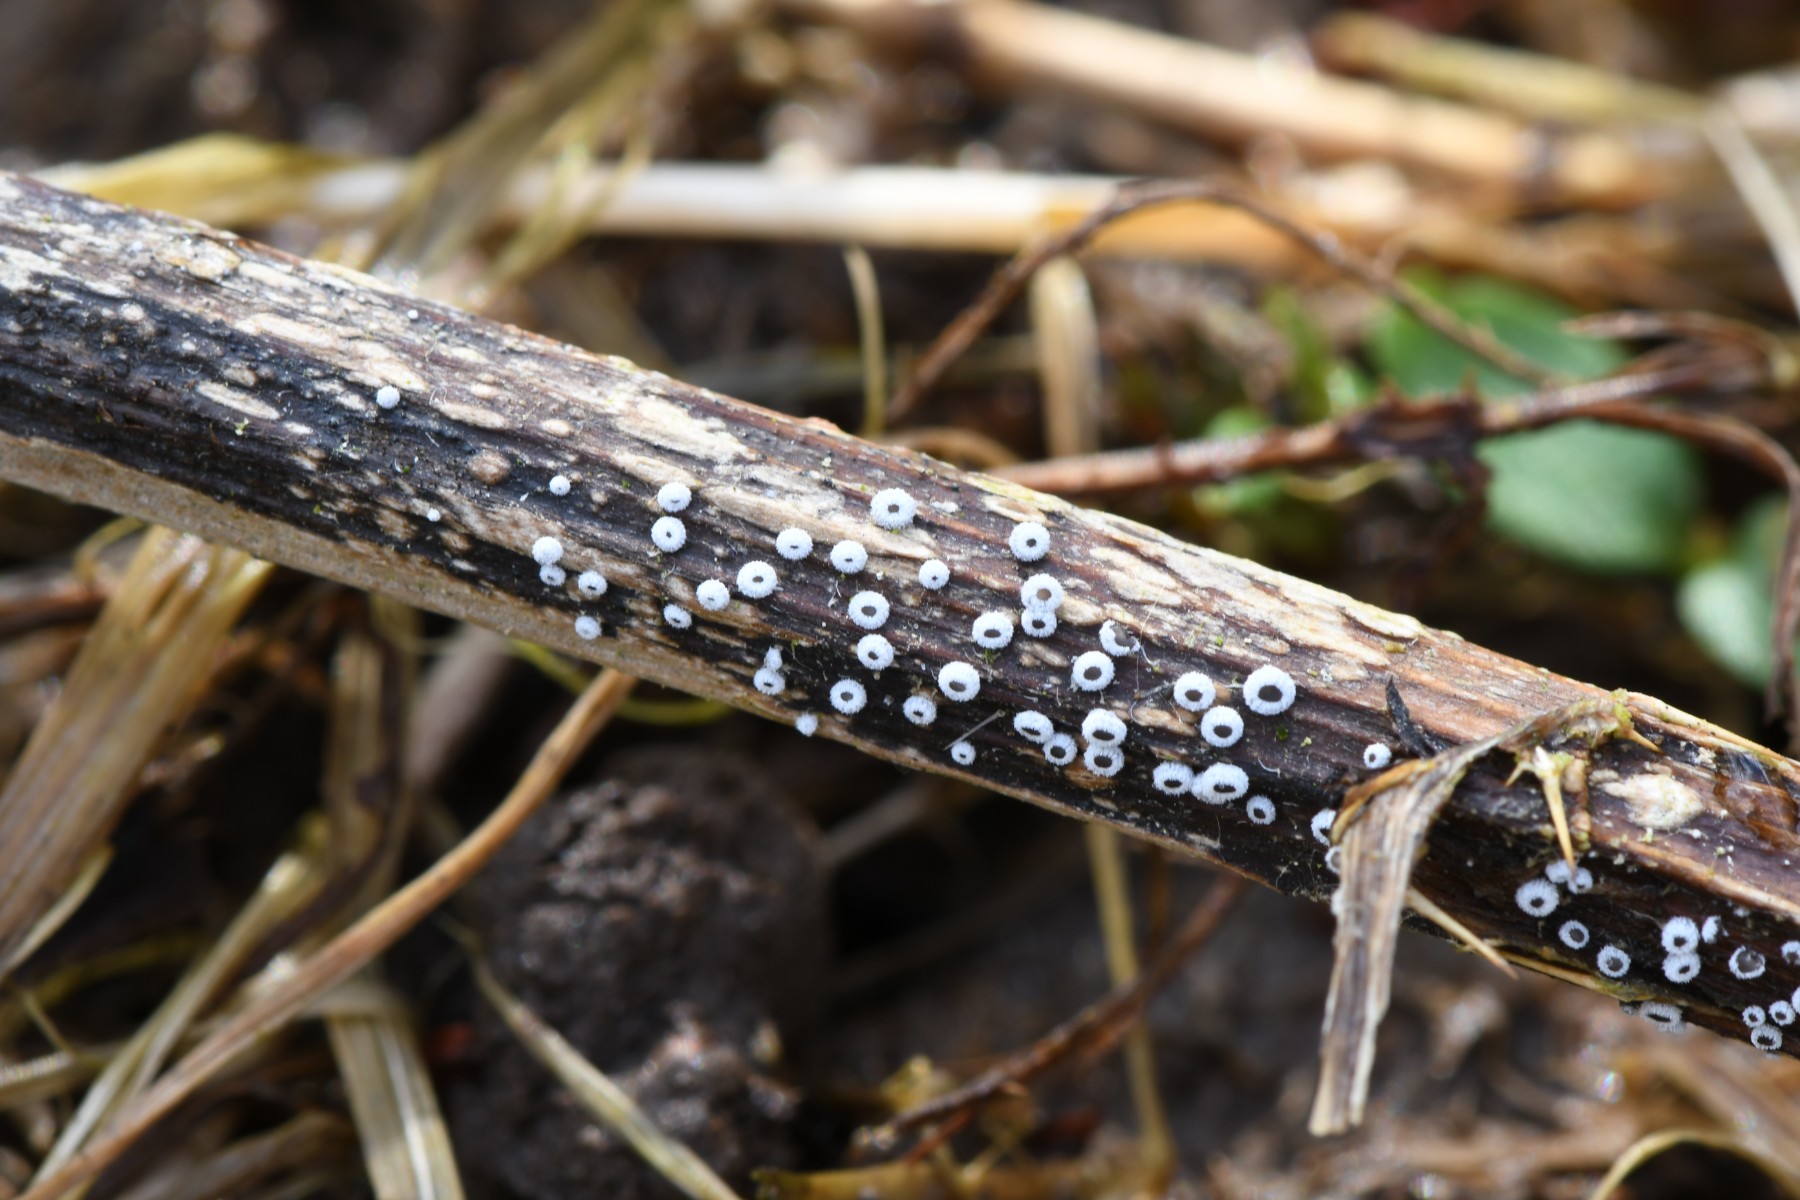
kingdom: Fungi
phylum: Ascomycota
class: Leotiomycetes
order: Helotiales
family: Lachnaceae
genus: Lachnella
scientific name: Lachnella
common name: frynserede
